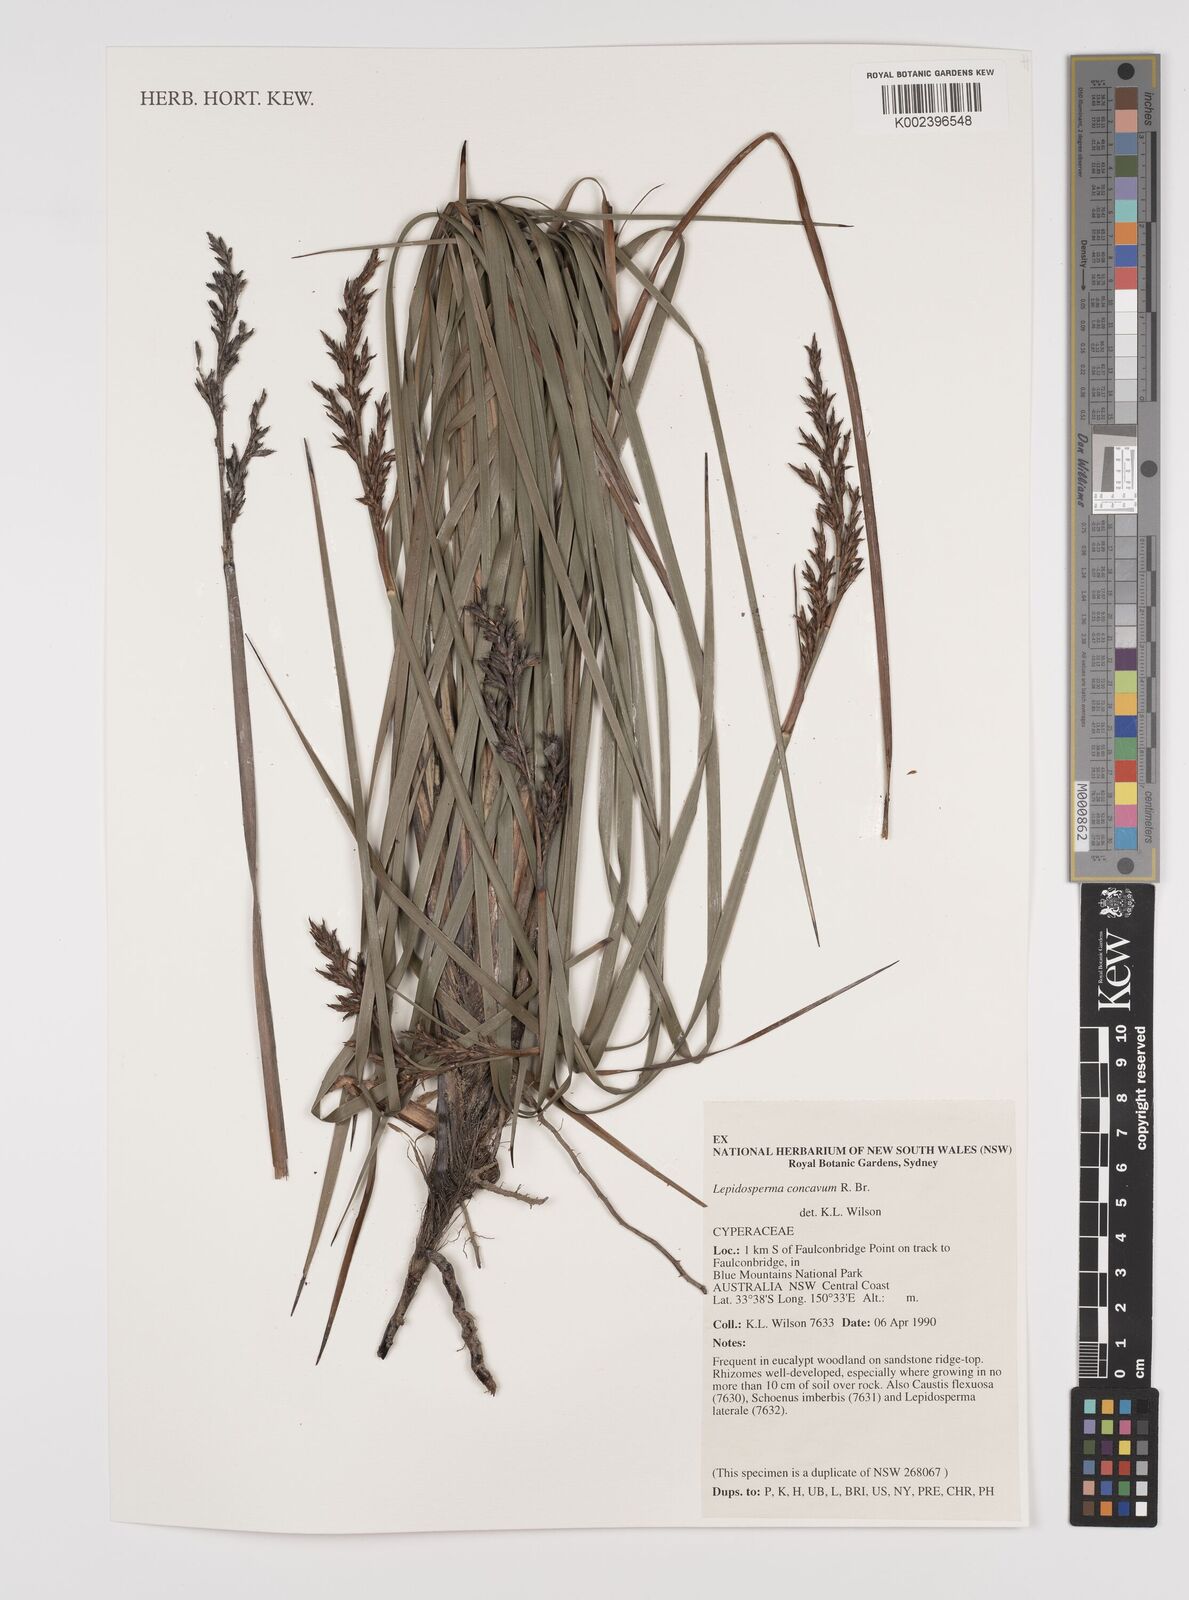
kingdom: Plantae
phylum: Tracheophyta
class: Liliopsida
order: Poales
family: Cyperaceae
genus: Lepidosperma
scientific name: Lepidosperma concavum
